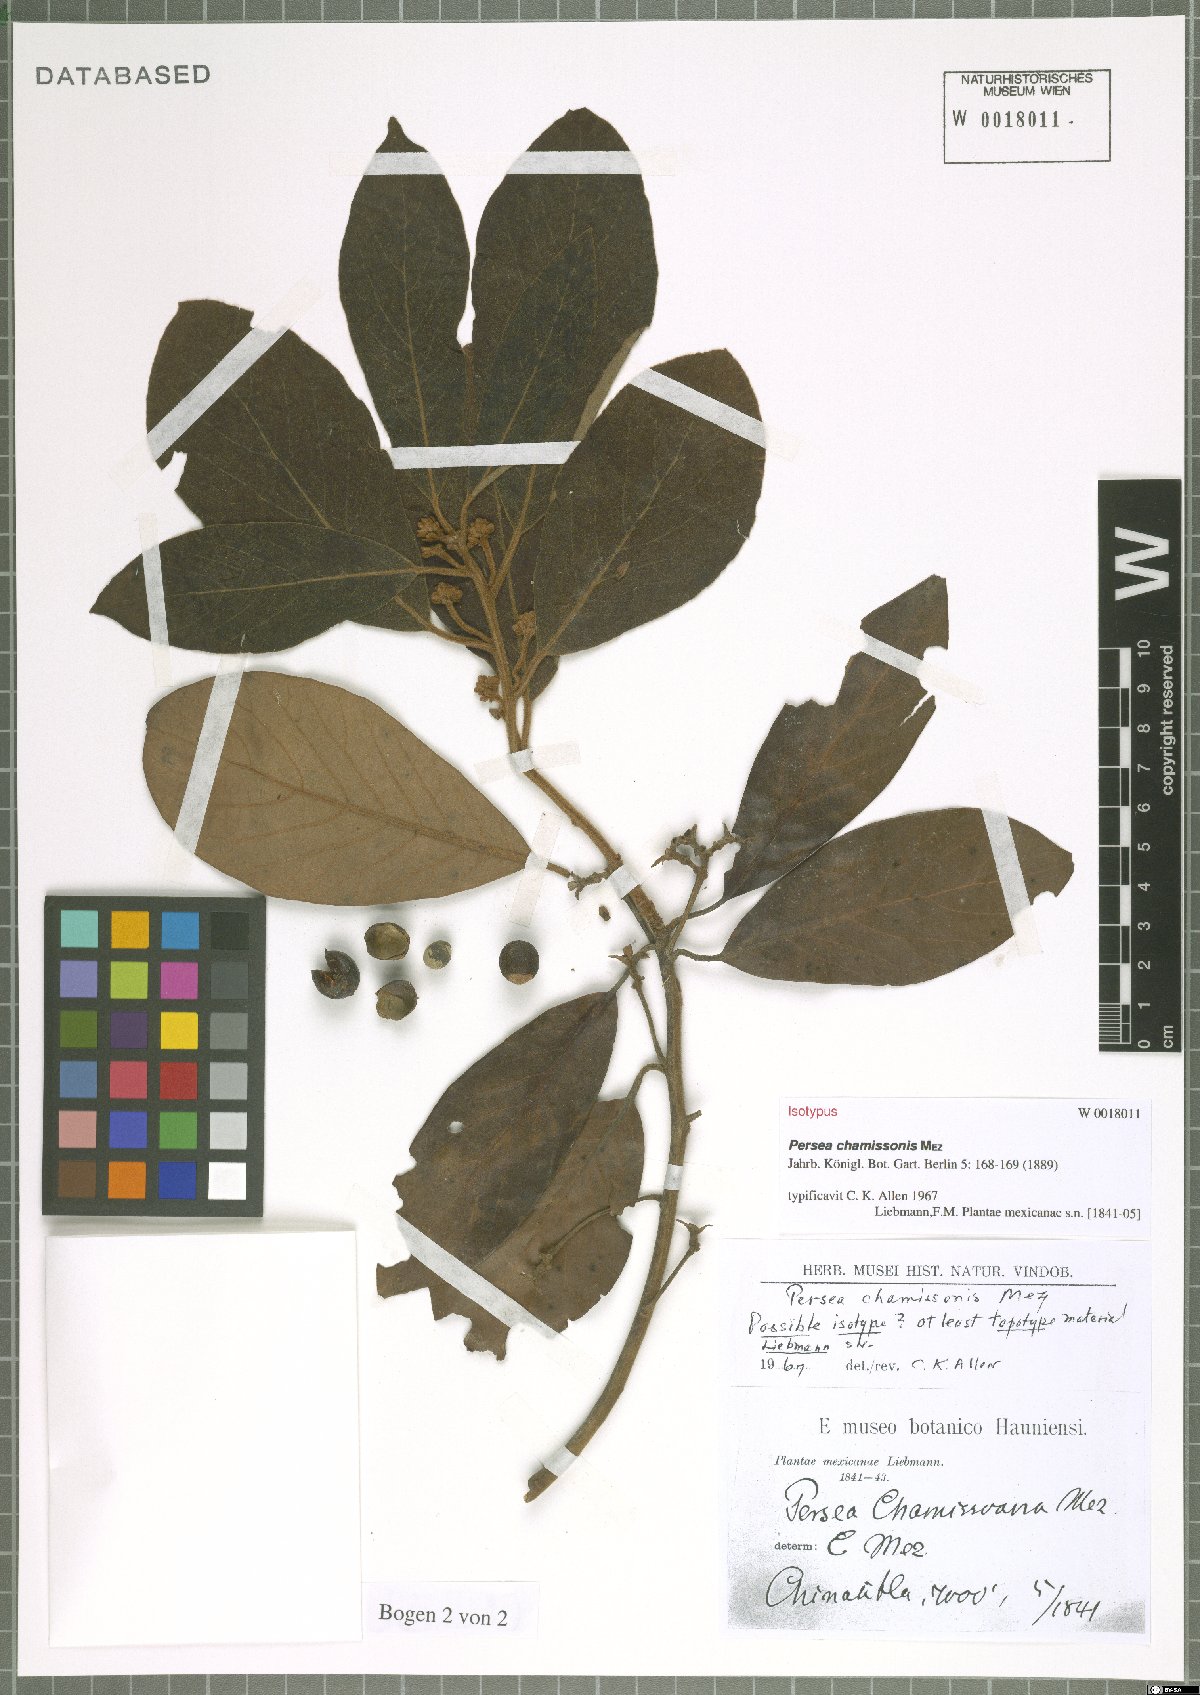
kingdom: Plantae
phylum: Tracheophyta
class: Magnoliopsida
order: Laurales
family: Lauraceae
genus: Persea
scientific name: Persea chamissonis
